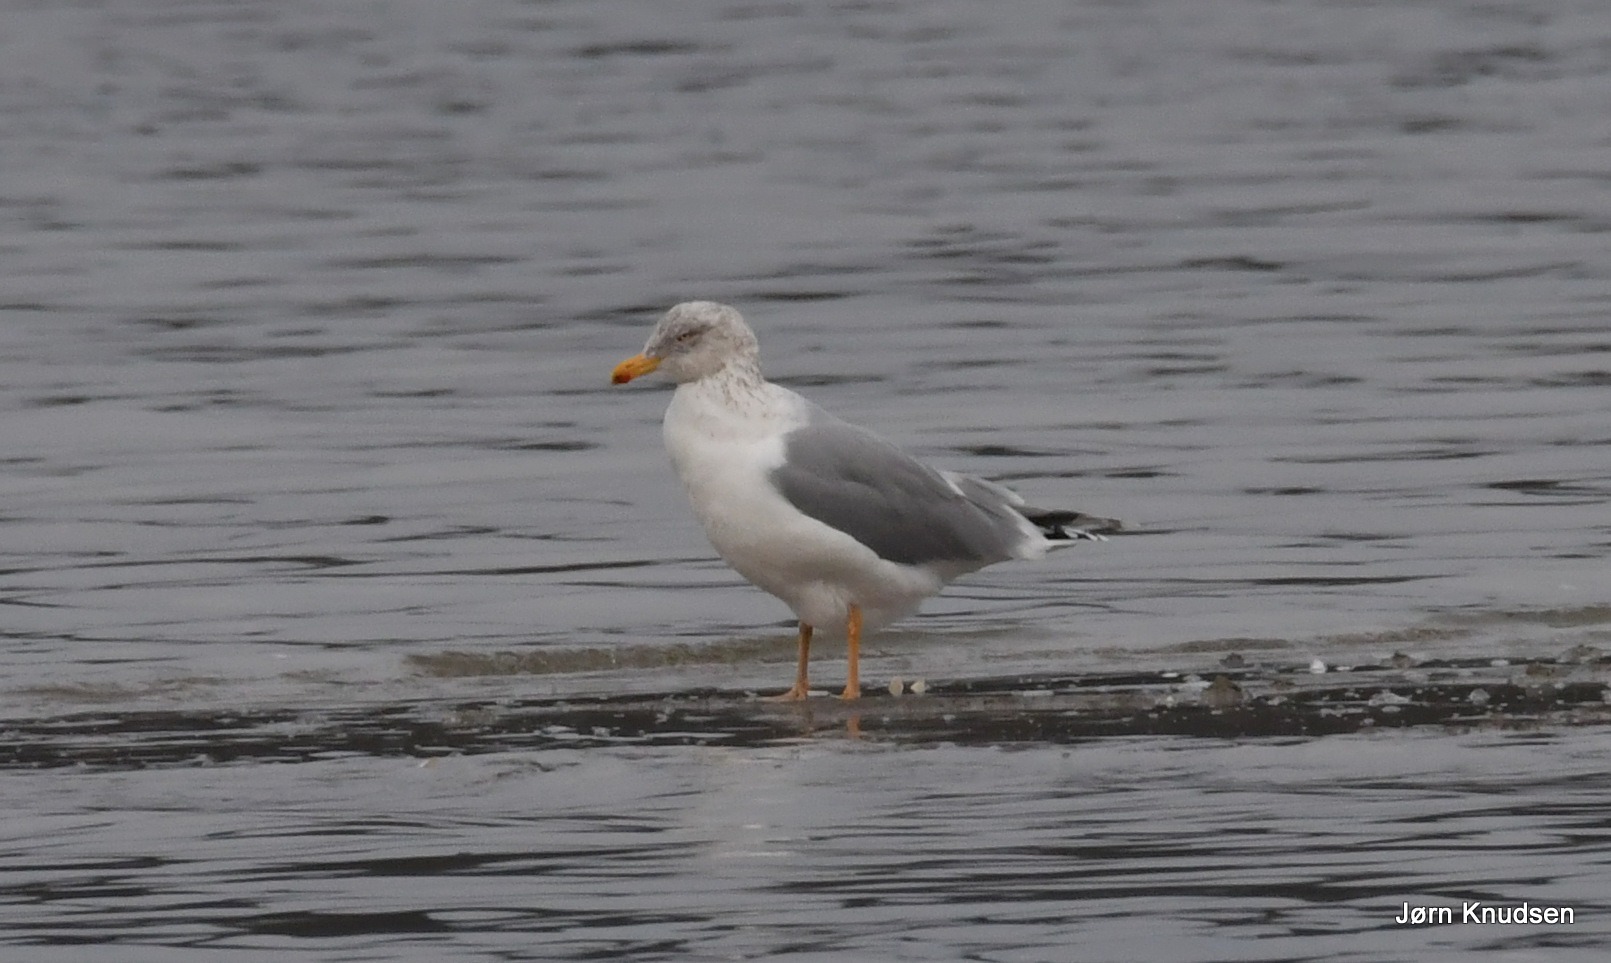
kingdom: Animalia
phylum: Chordata
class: Aves
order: Charadriiformes
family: Laridae
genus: Larus
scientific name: Larus argentatus
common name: Sølvmåge
